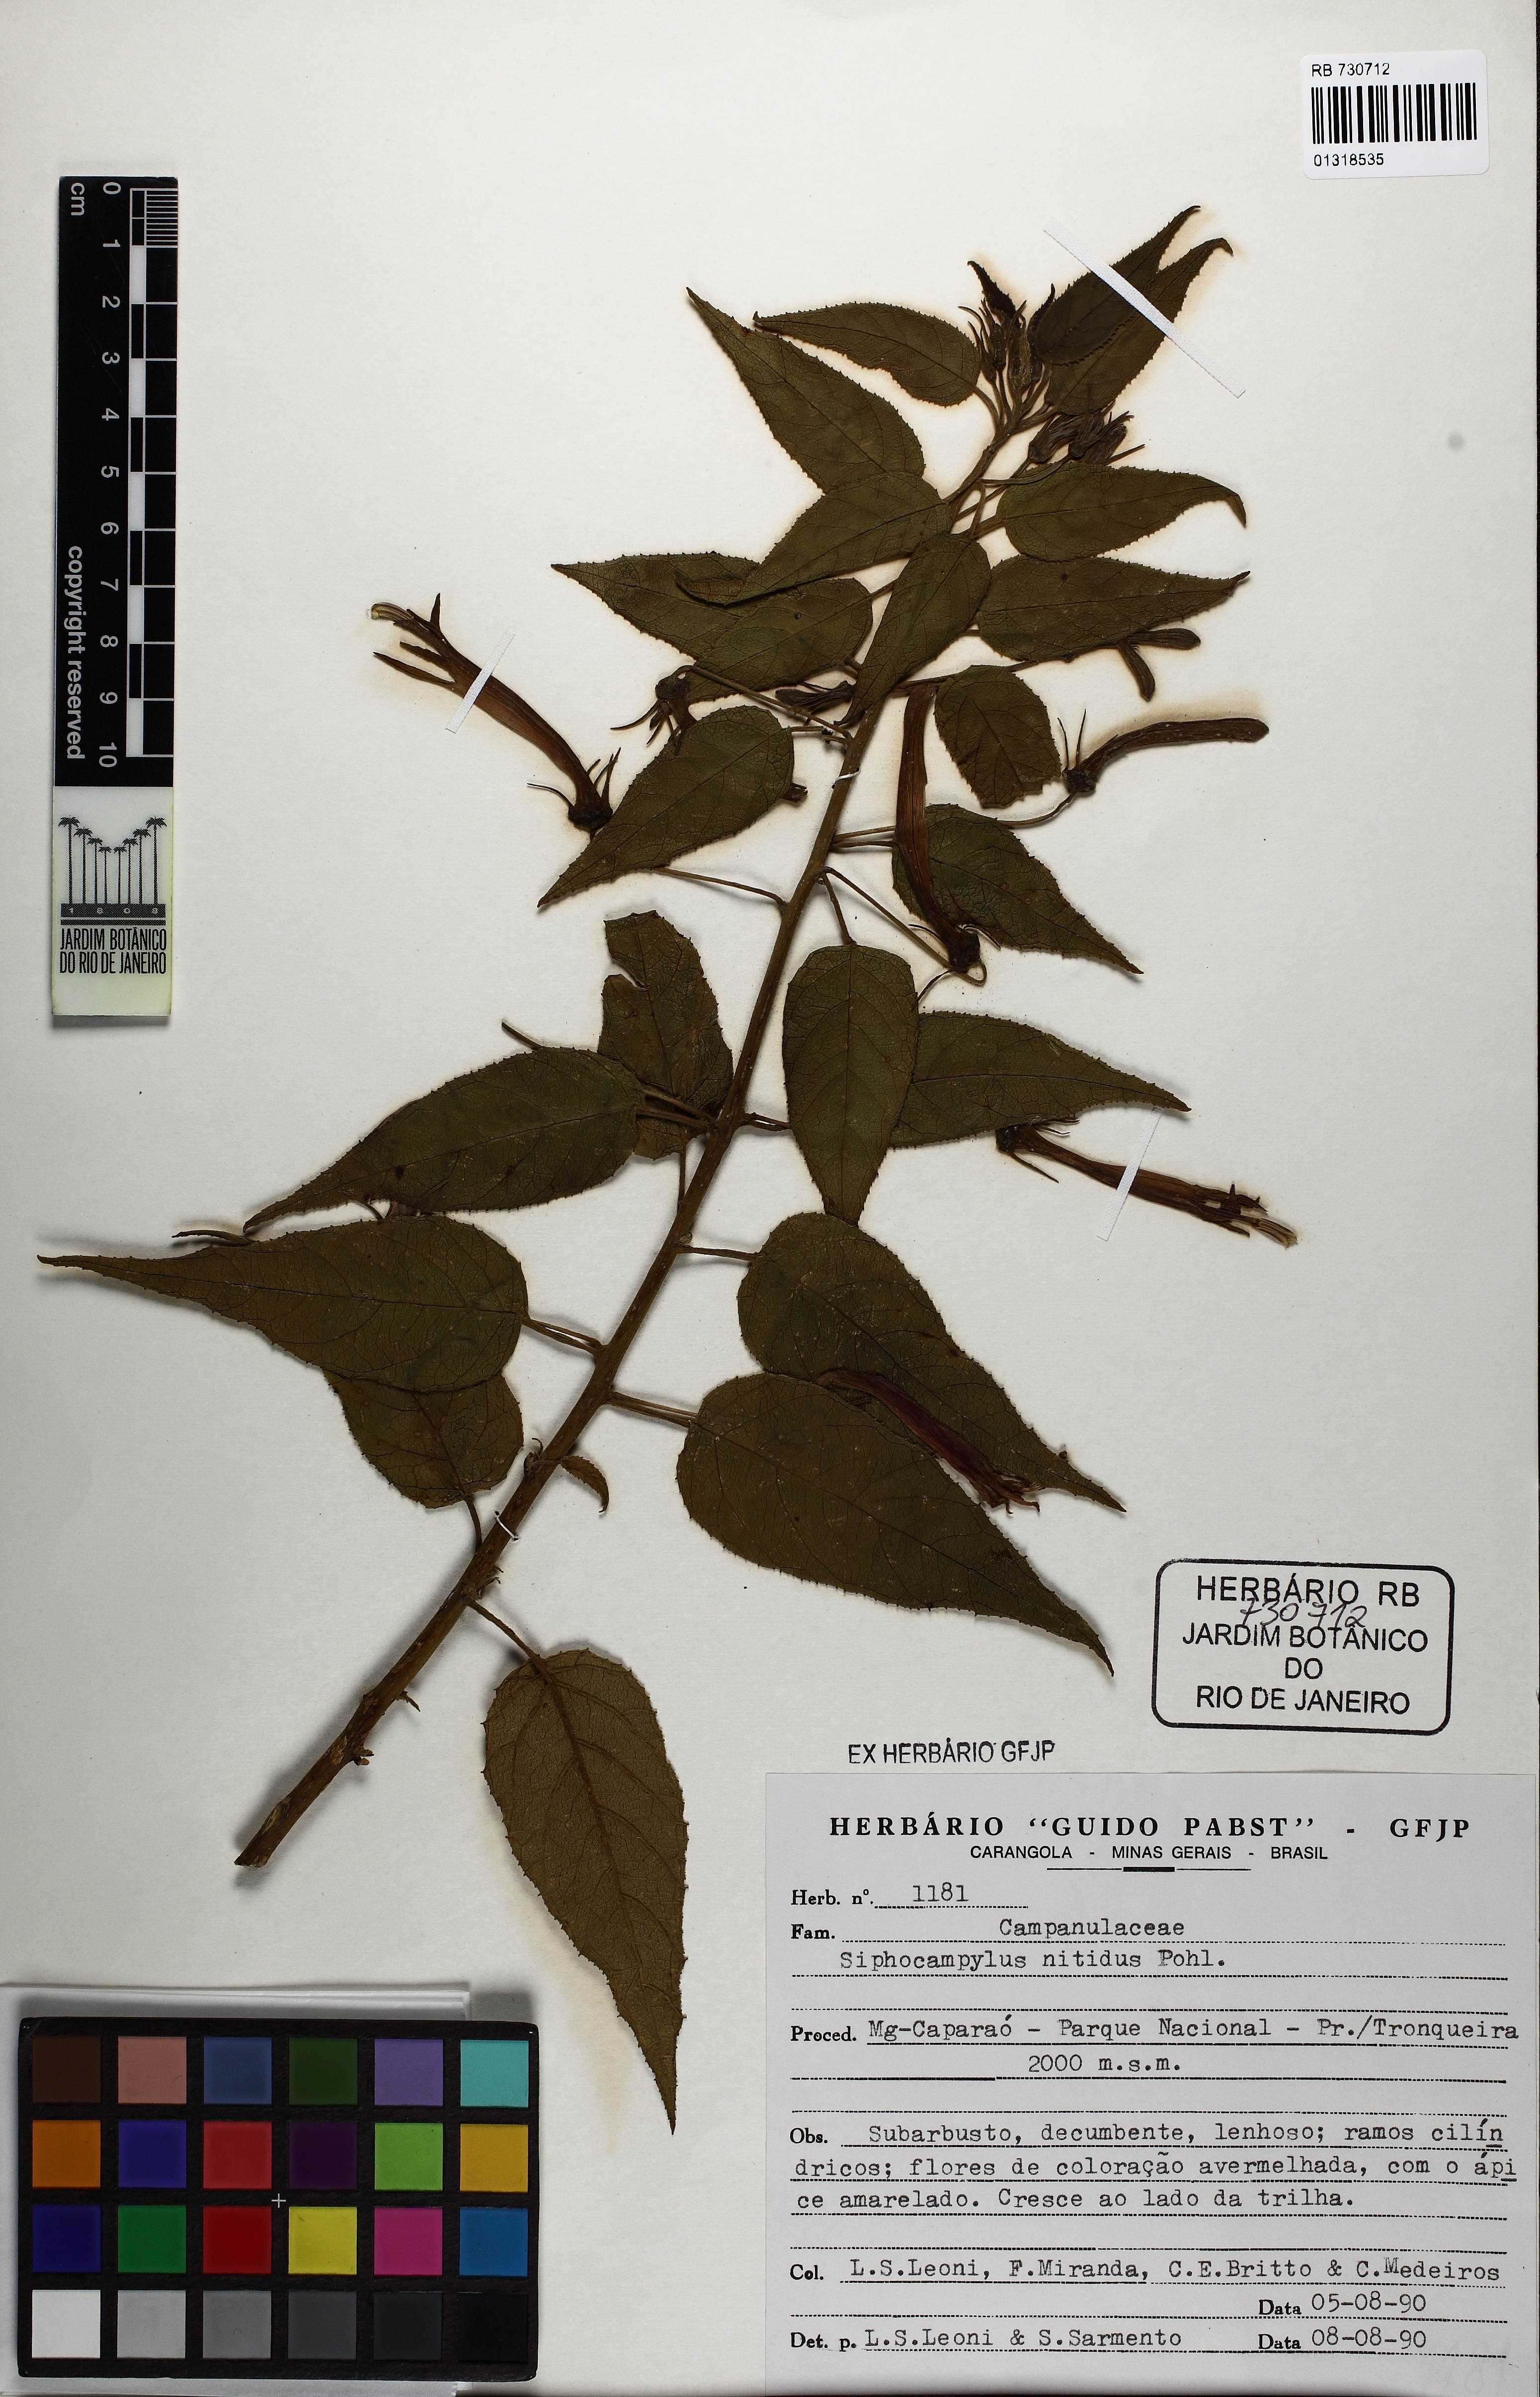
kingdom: Plantae
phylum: Tracheophyta
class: Magnoliopsida
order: Asterales
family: Campanulaceae
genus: Siphocampylus
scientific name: Siphocampylus nitidus
